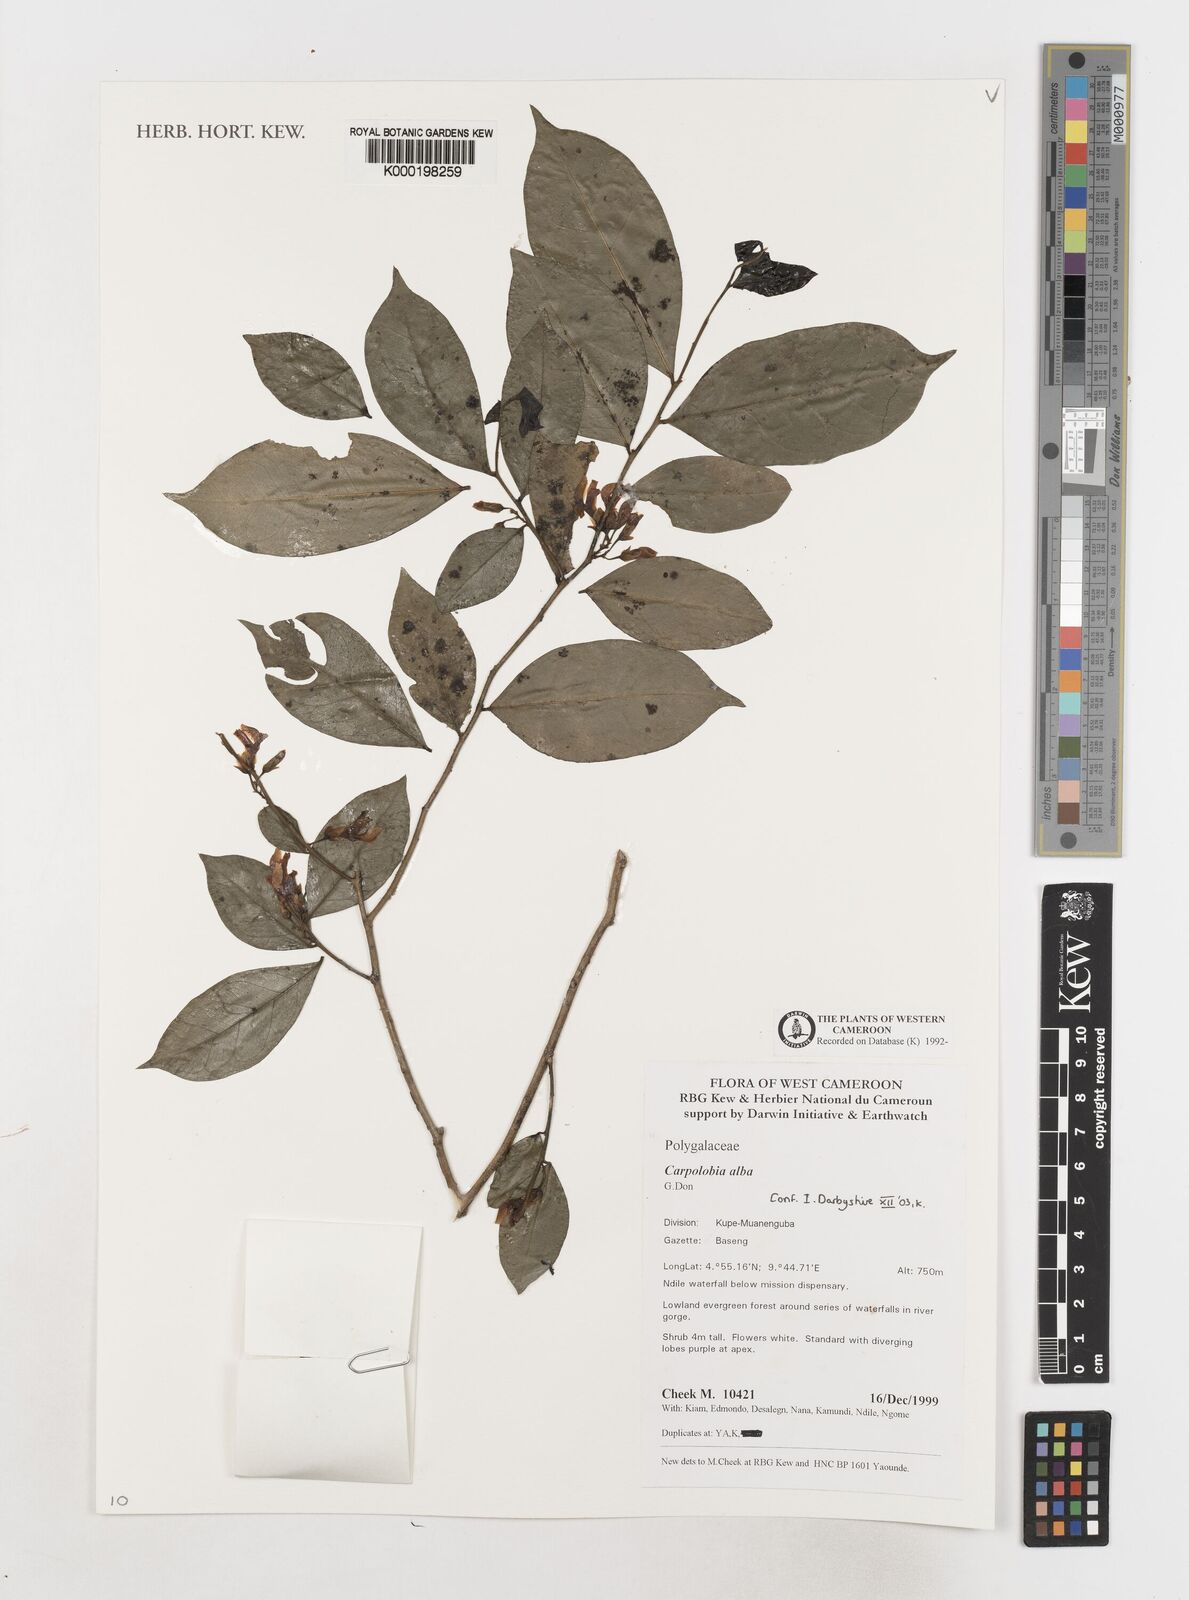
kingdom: Plantae
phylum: Tracheophyta
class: Magnoliopsida
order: Fabales
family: Polygalaceae
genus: Carpolobia
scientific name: Carpolobia alba
